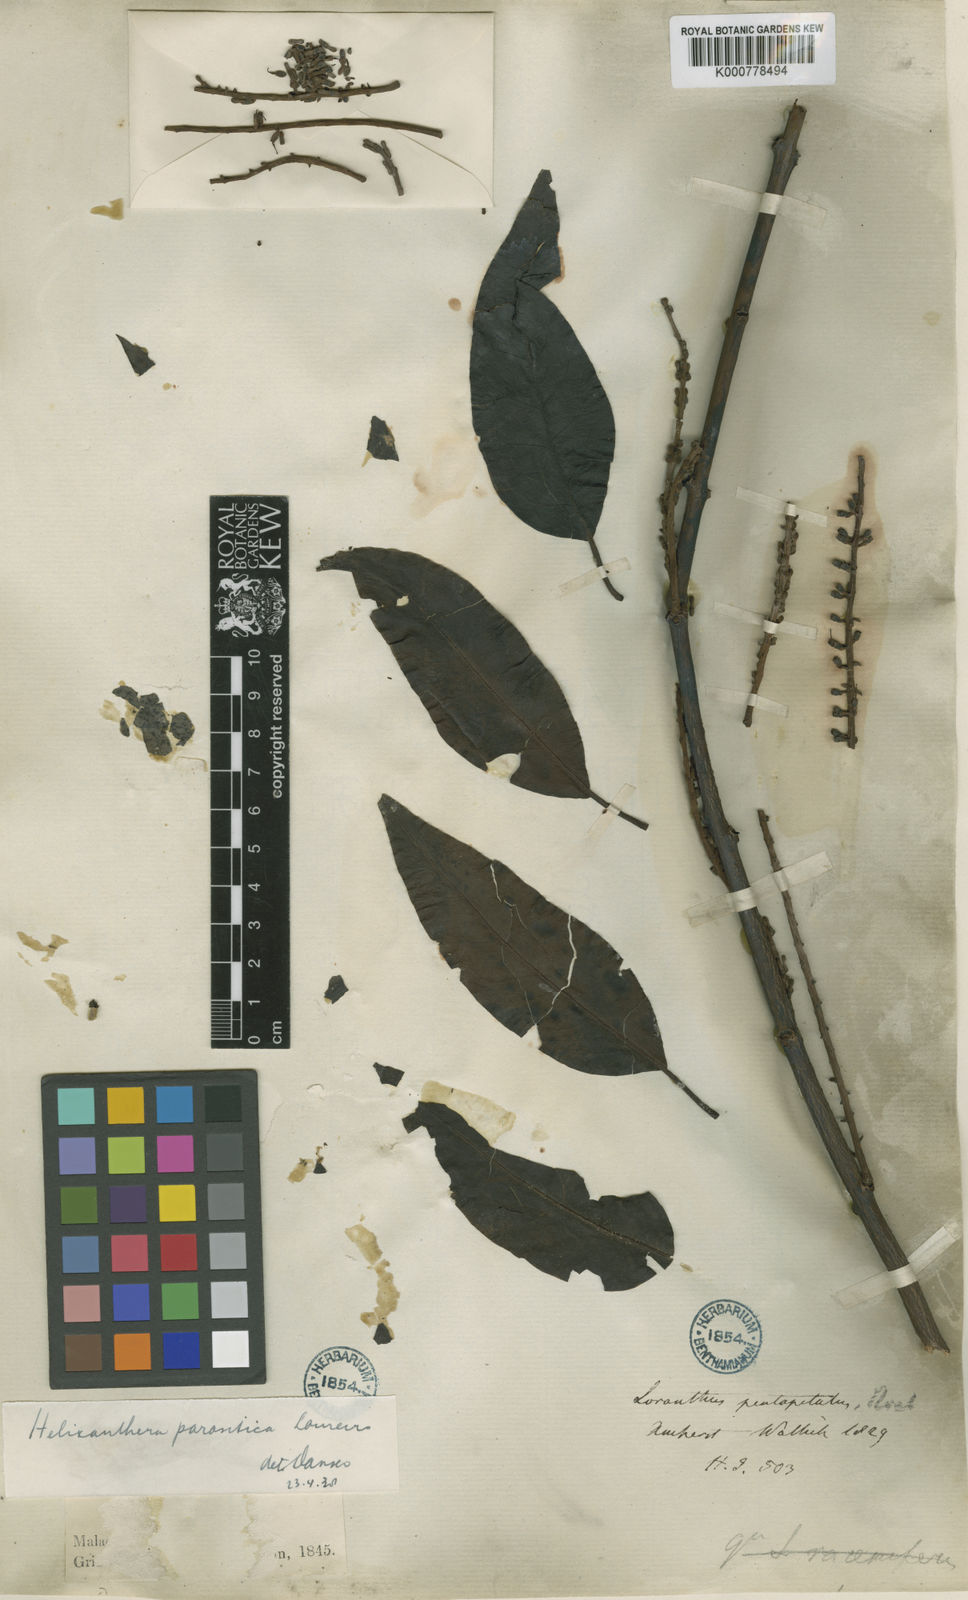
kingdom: Plantae
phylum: Tracheophyta
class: Magnoliopsida
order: Santalales
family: Loranthaceae
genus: Helixanthera
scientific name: Helixanthera parasitica
